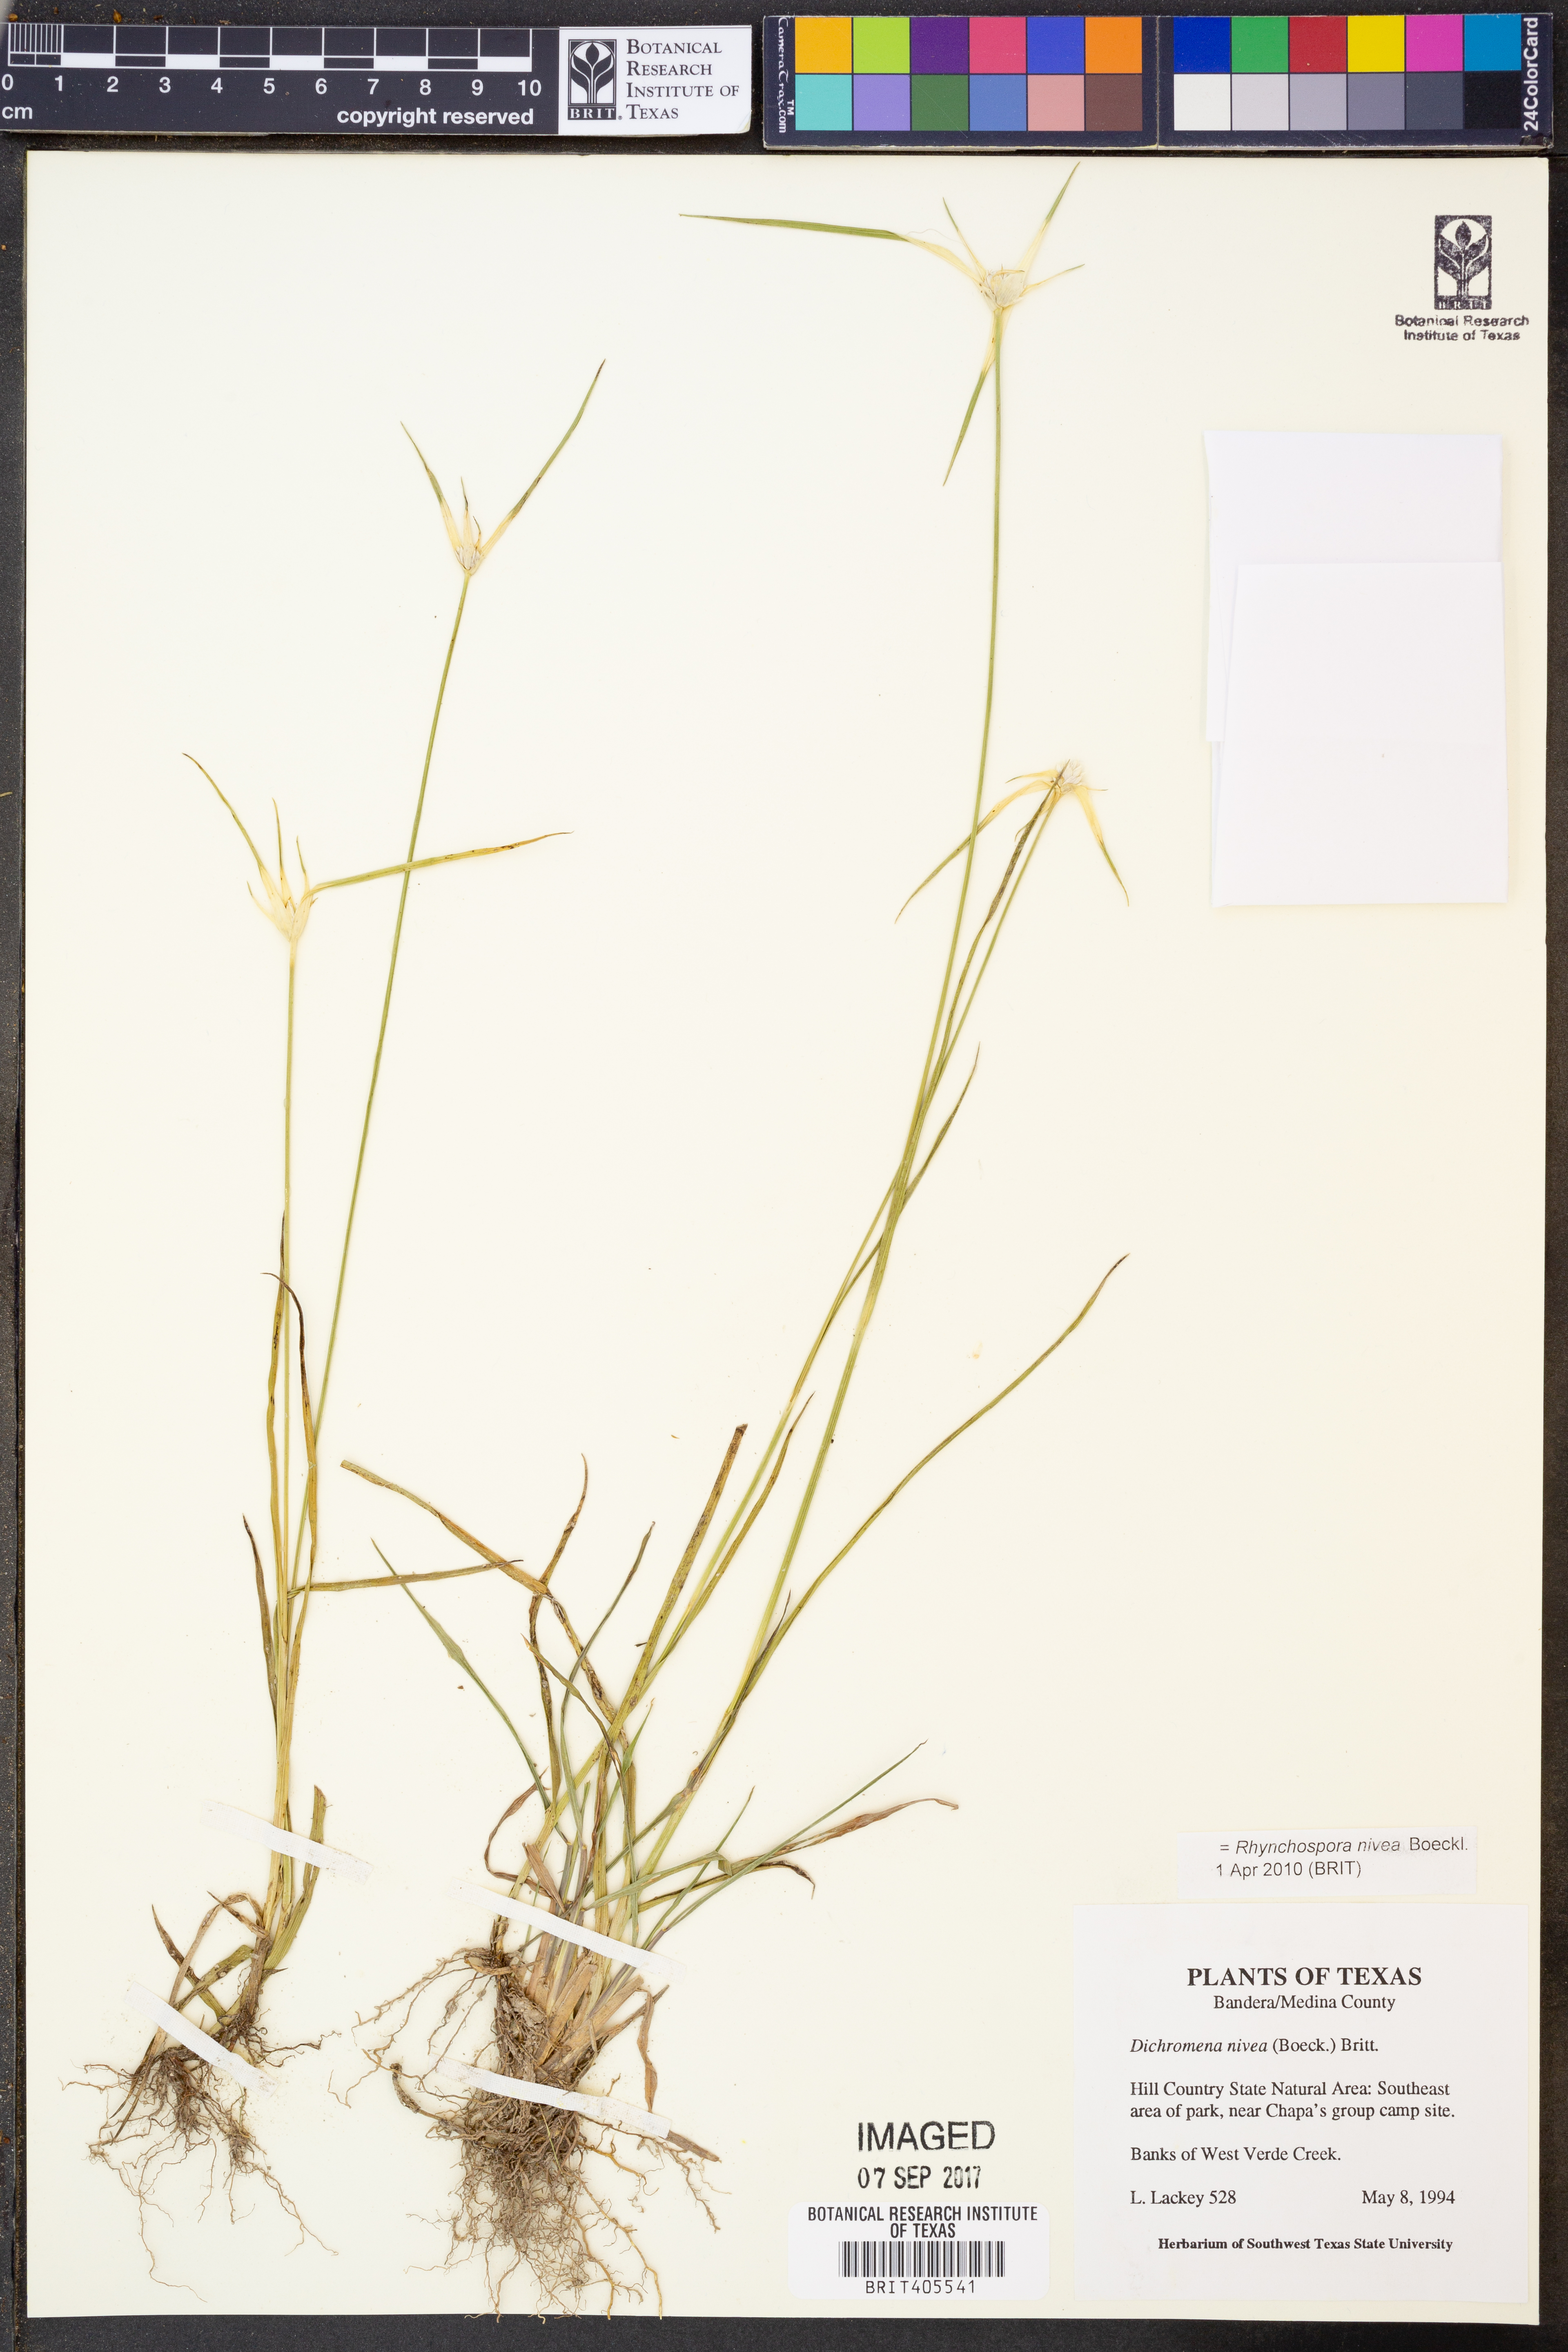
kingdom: Plantae
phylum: Tracheophyta
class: Liliopsida
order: Poales
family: Cyperaceae
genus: Rhynchospora
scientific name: Rhynchospora nivea
